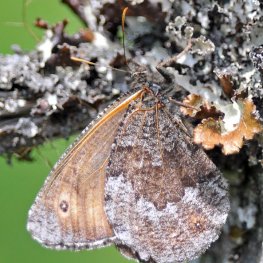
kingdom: Animalia
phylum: Arthropoda
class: Insecta
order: Lepidoptera
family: Nymphalidae
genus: Oeneis
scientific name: Oeneis jutta
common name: Jutta Arctic
